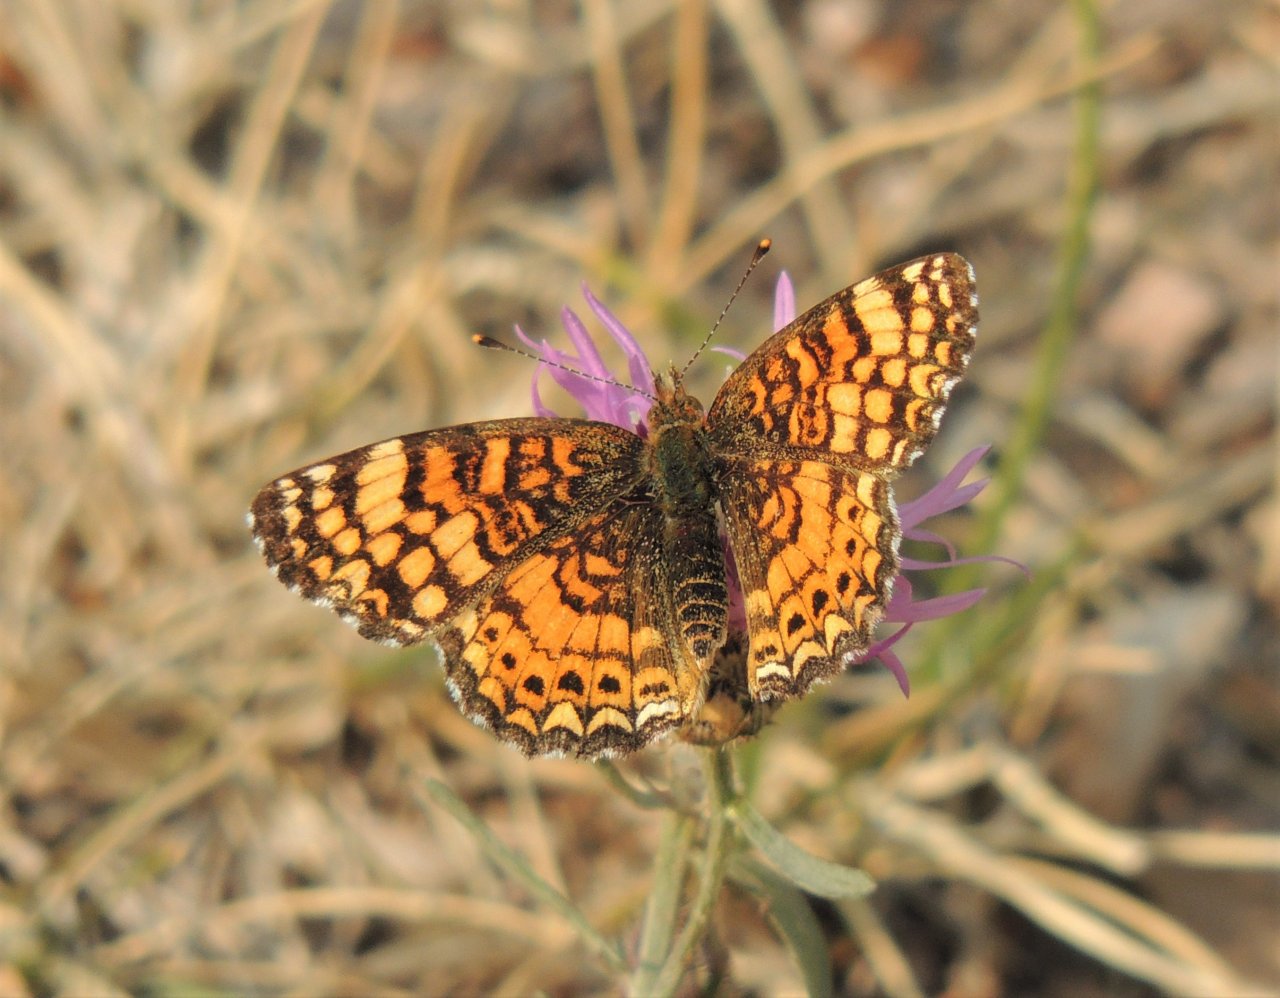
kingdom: Animalia
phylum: Arthropoda
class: Insecta
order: Lepidoptera
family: Nymphalidae
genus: Eresia
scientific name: Eresia aveyrona
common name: Mylitta Crescent
